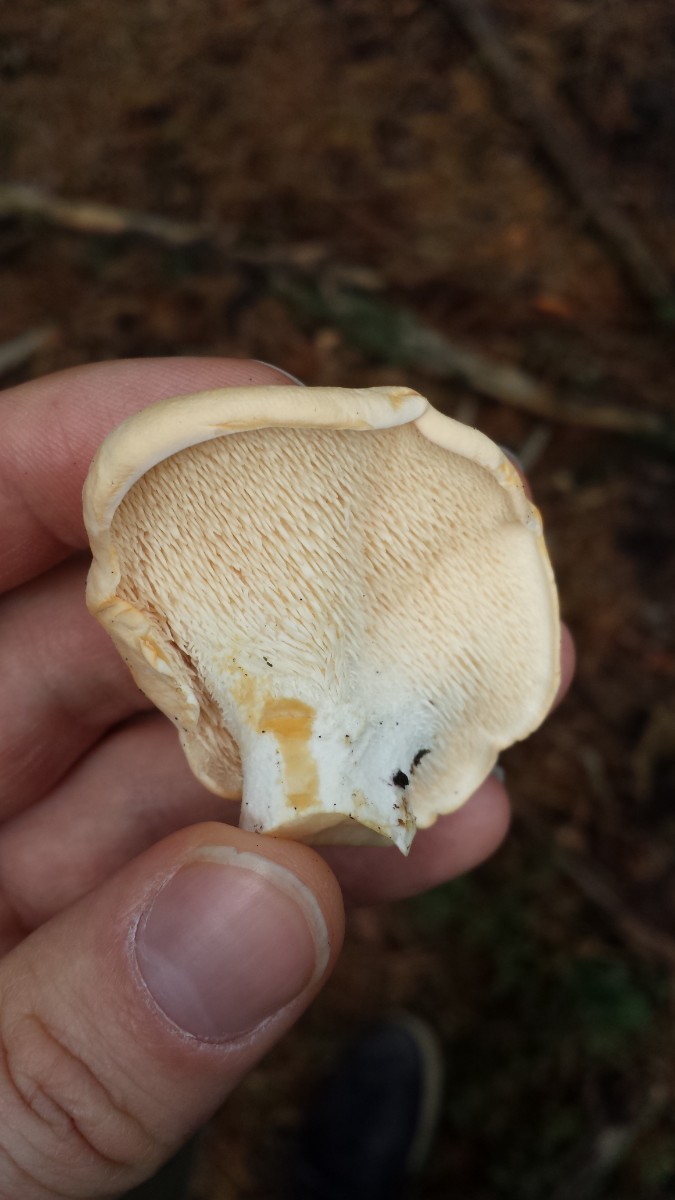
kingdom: Fungi
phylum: Basidiomycota
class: Agaricomycetes
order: Cantharellales
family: Hydnaceae
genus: Hydnum
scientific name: Hydnum repandum
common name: almindelig pigsvamp
